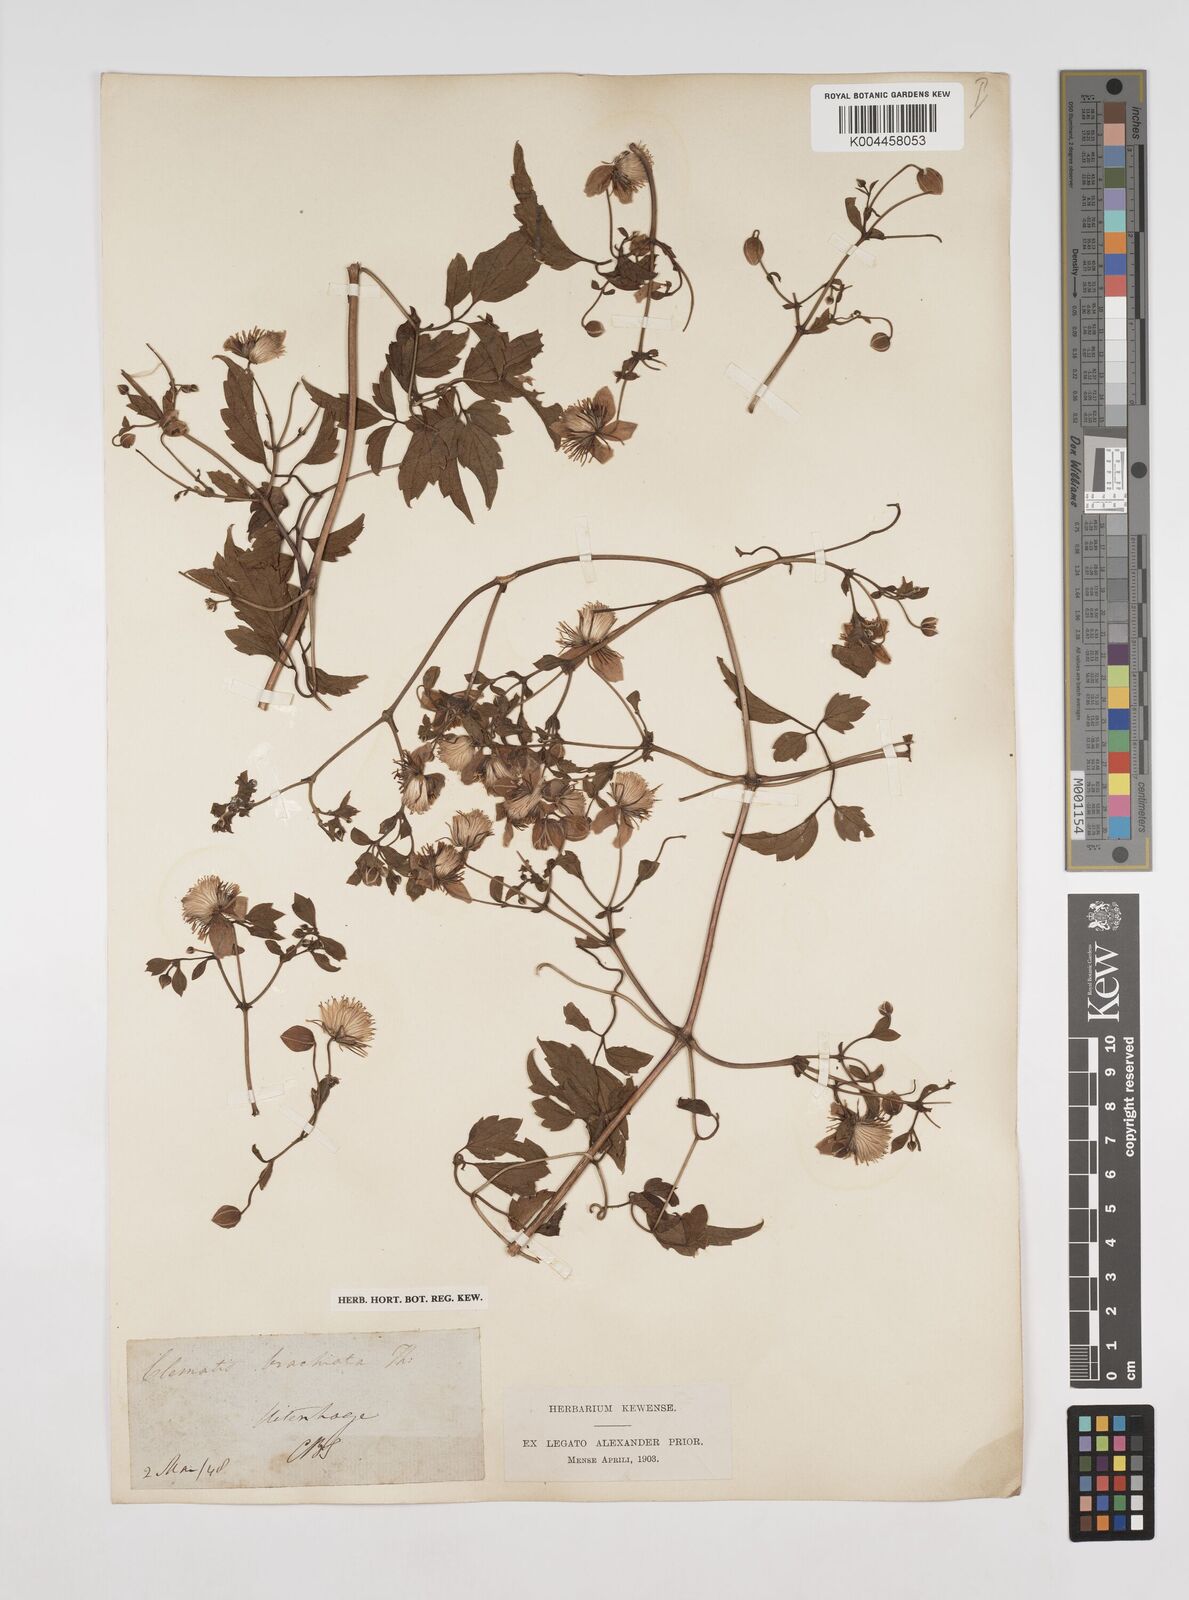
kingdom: Plantae
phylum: Tracheophyta
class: Magnoliopsida
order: Ranunculales
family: Ranunculaceae
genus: Clematis
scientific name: Clematis brachiata
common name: Traveler's-joy
